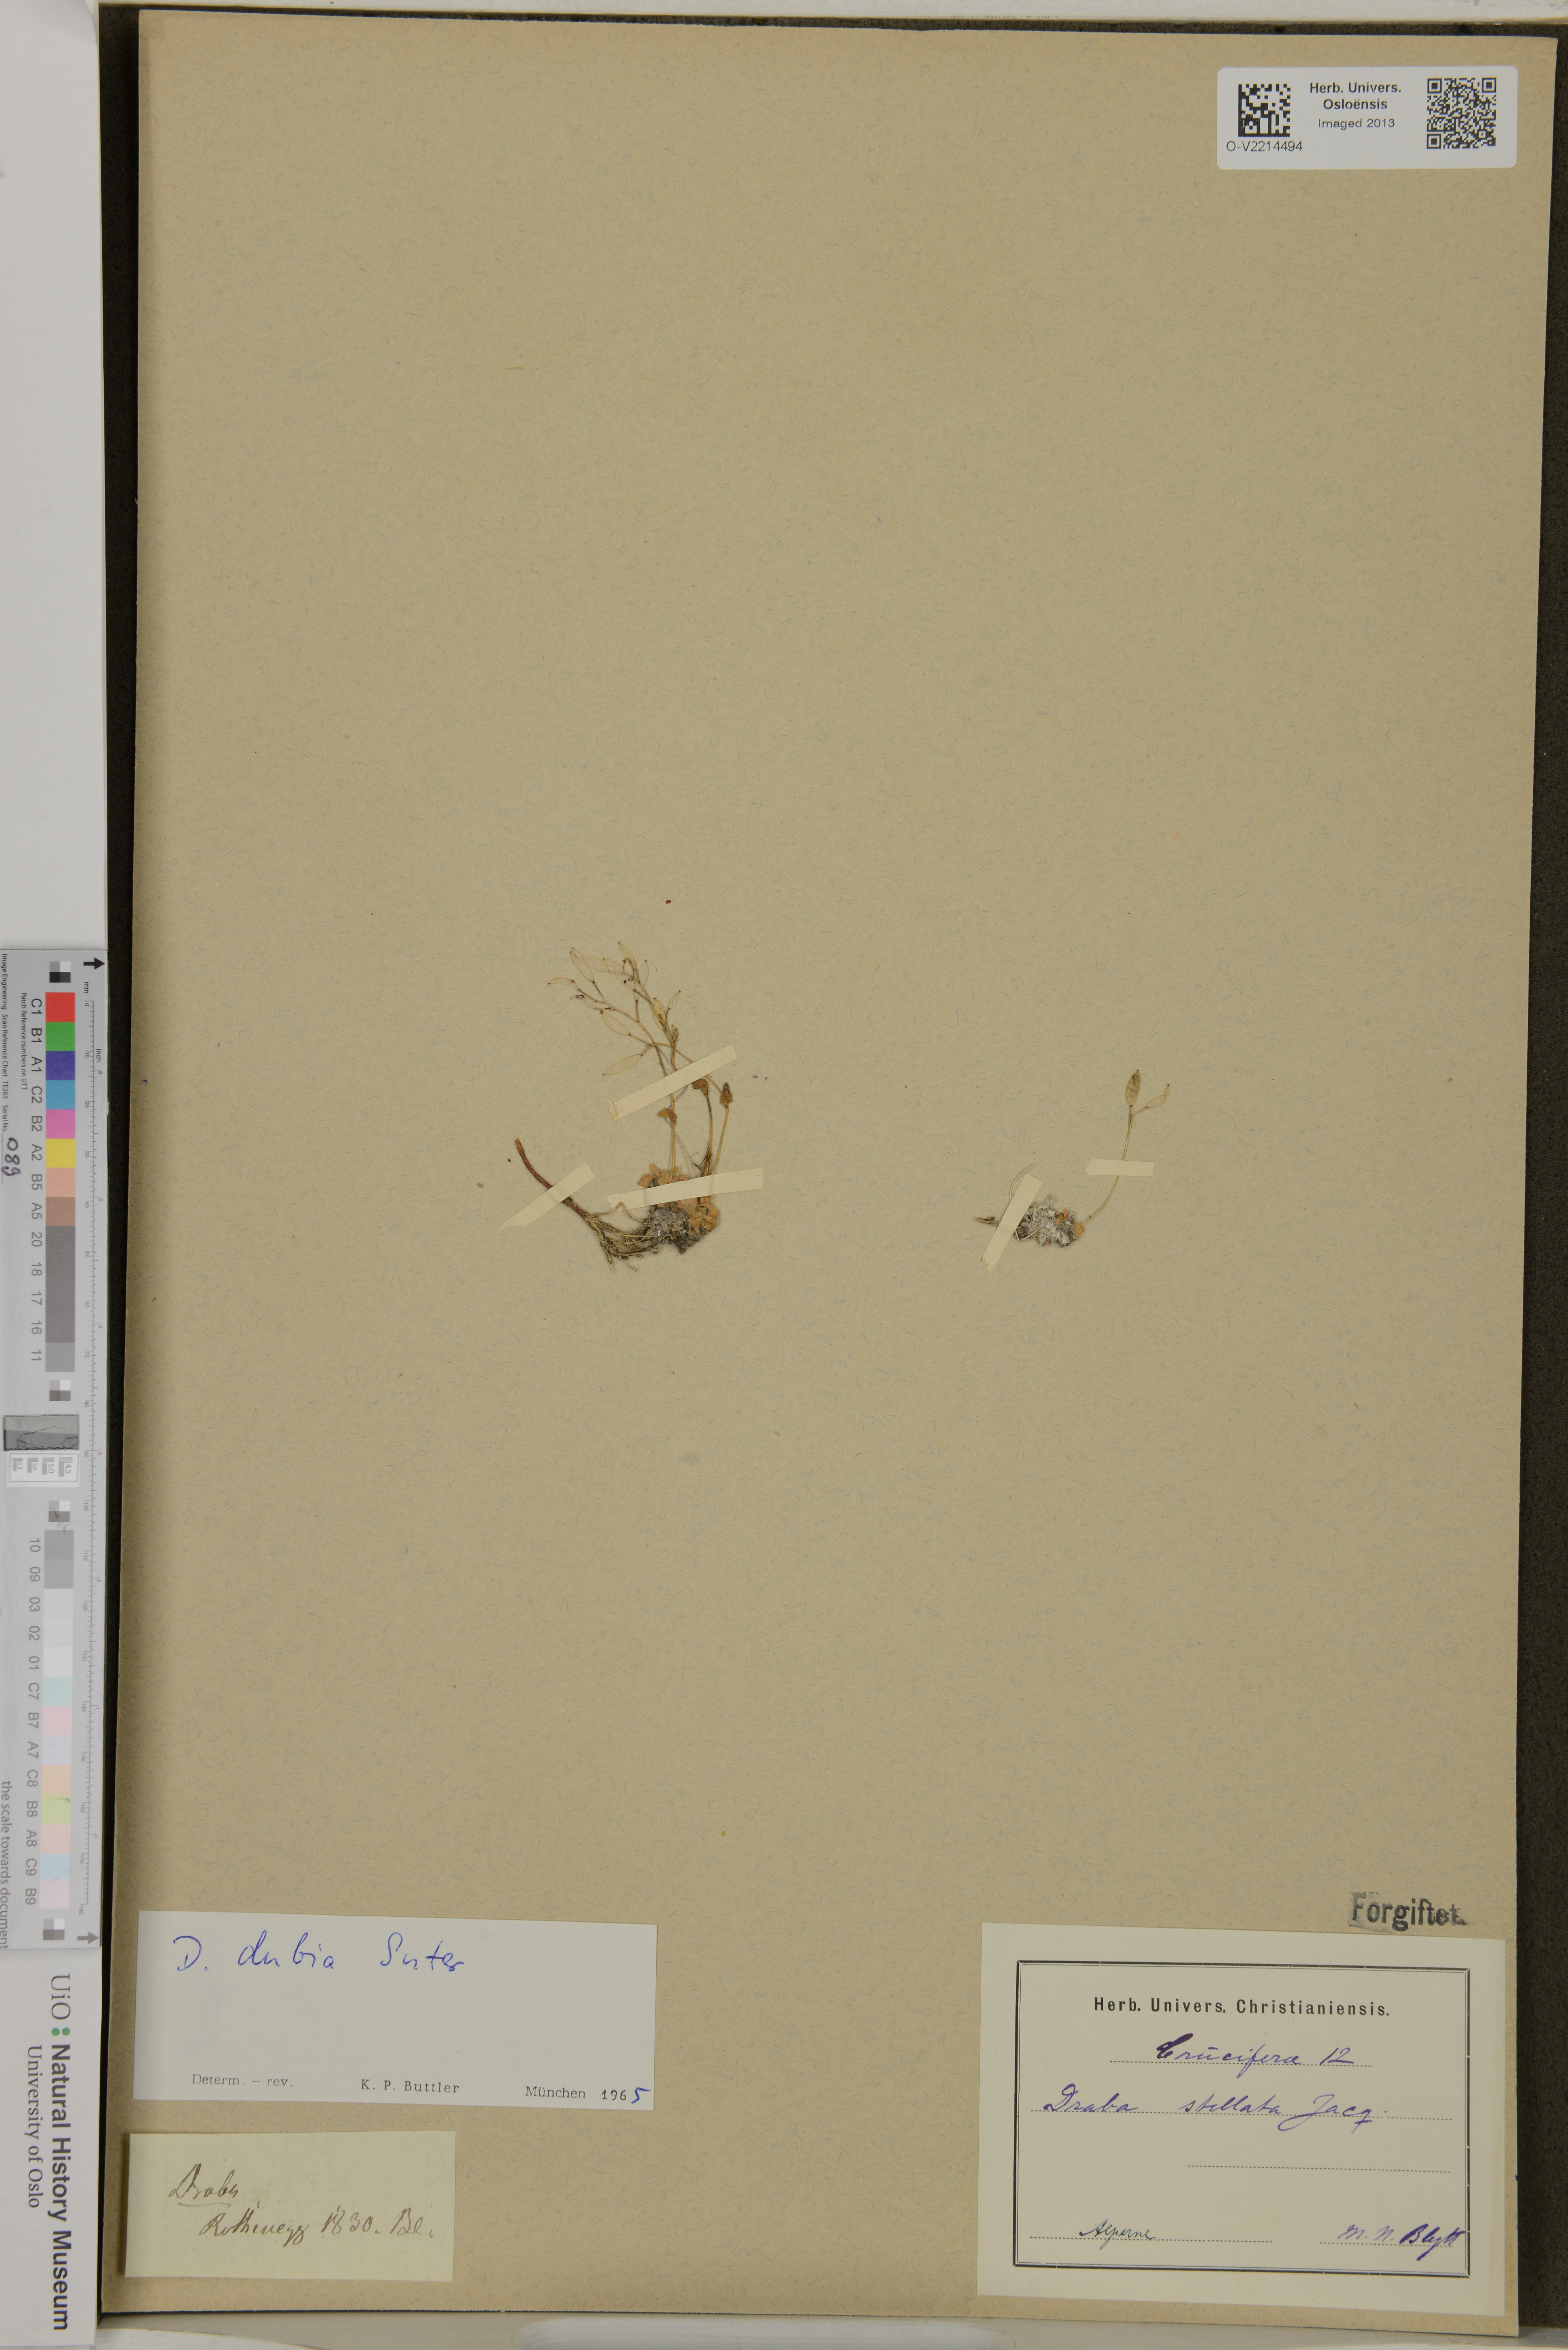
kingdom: Plantae
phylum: Tracheophyta
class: Magnoliopsida
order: Brassicales
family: Brassicaceae
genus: Draba
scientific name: Draba stellata
